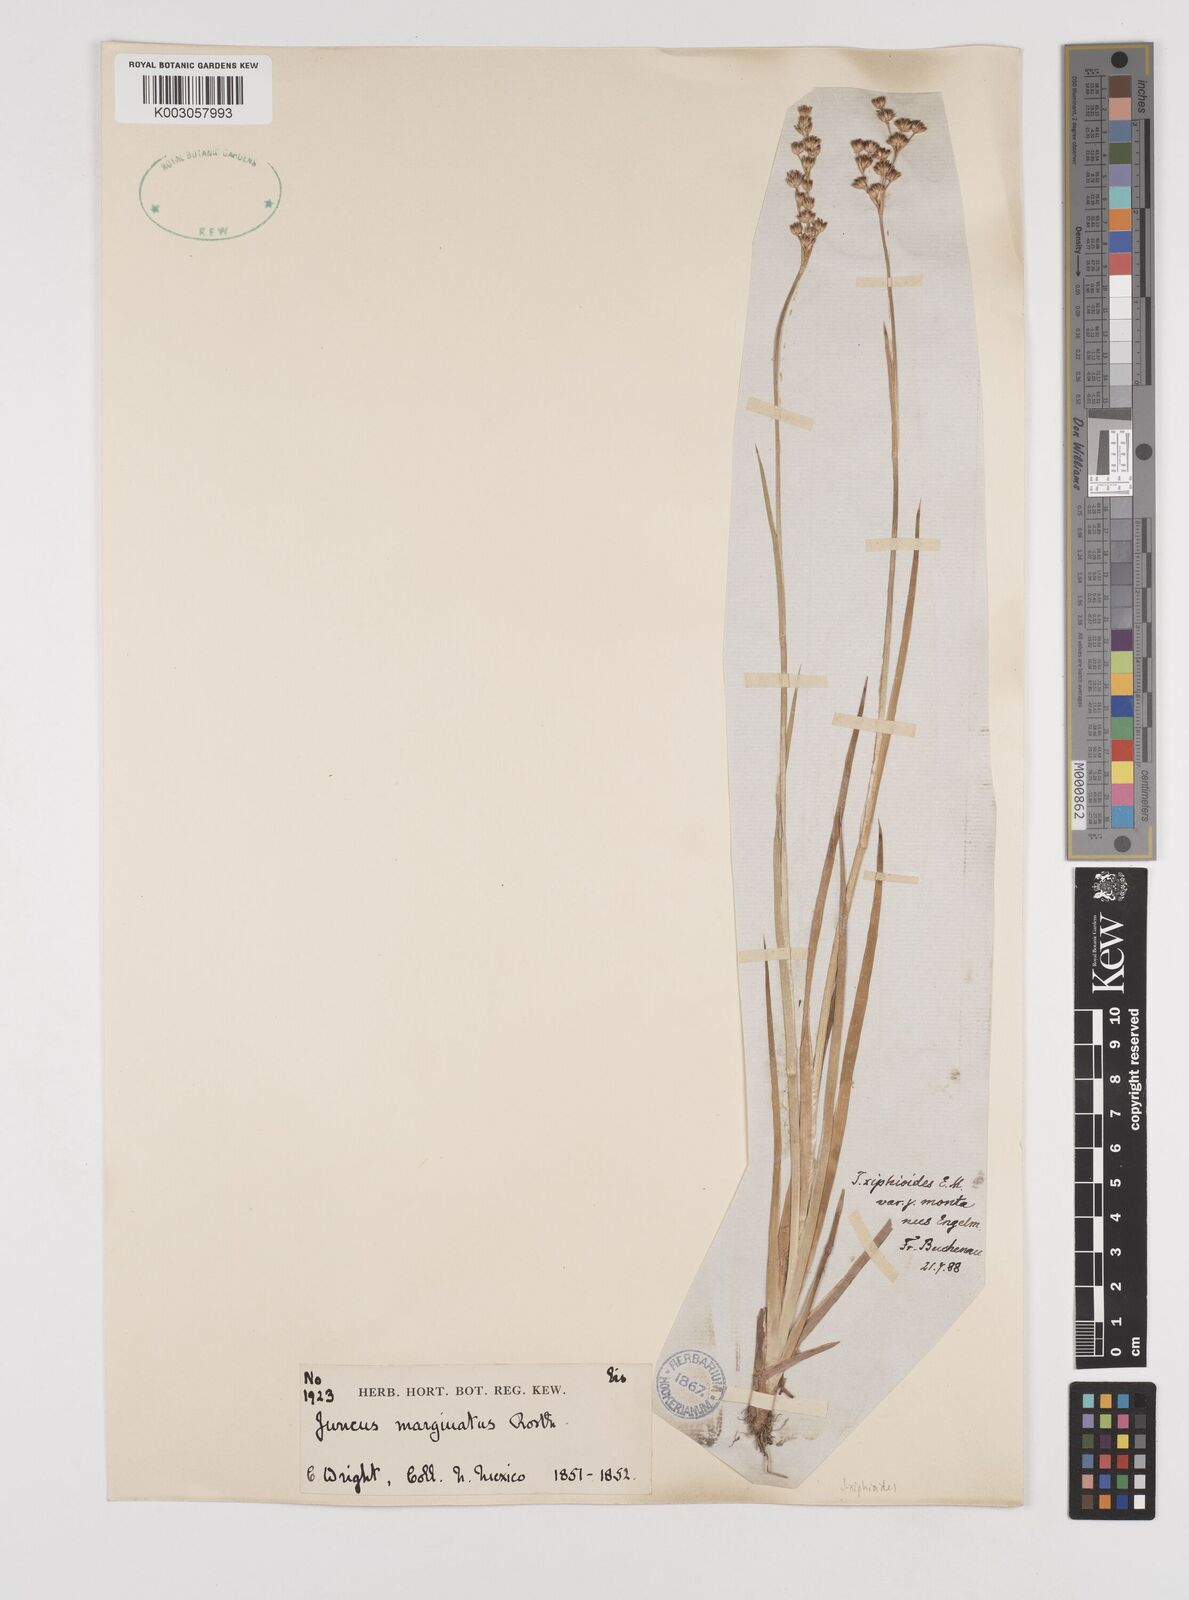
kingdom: Plantae
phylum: Tracheophyta
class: Liliopsida
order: Poales
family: Juncaceae
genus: Juncus
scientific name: Juncus marginatus
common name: Grass-leaf rush
